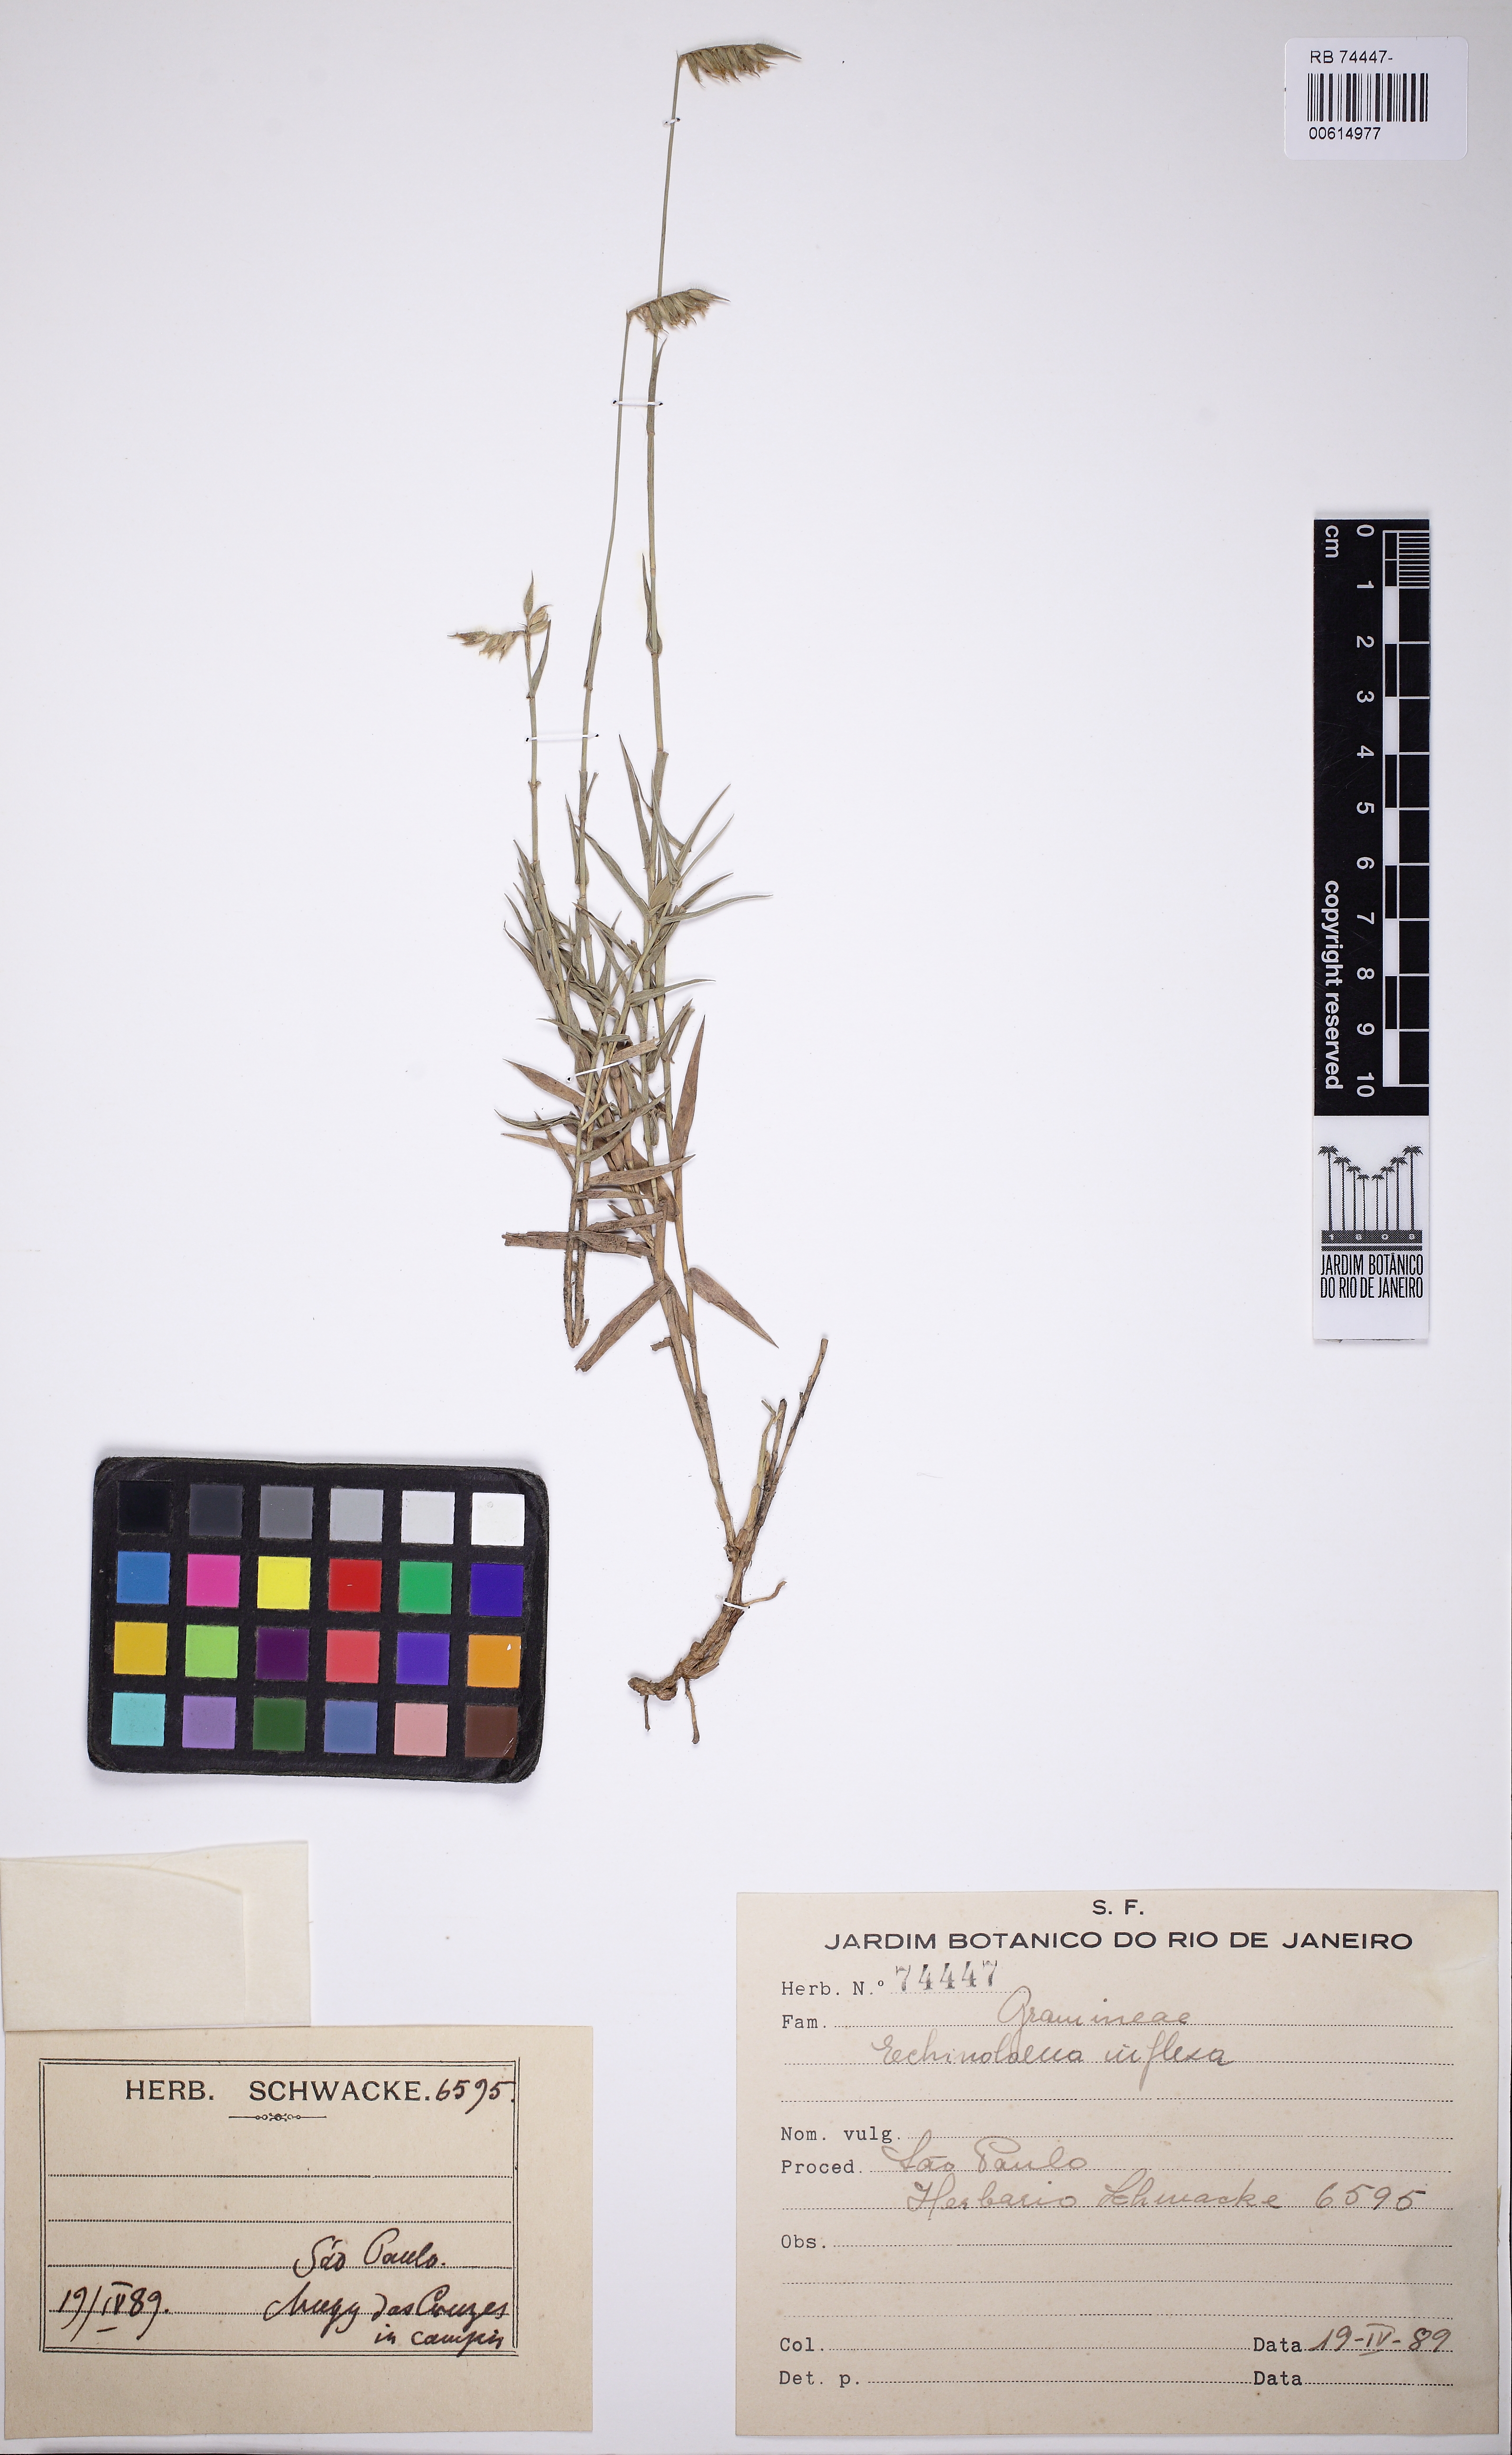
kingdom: Plantae
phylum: Tracheophyta
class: Liliopsida
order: Poales
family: Poaceae
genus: Echinolaena
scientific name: Echinolaena inflexa
